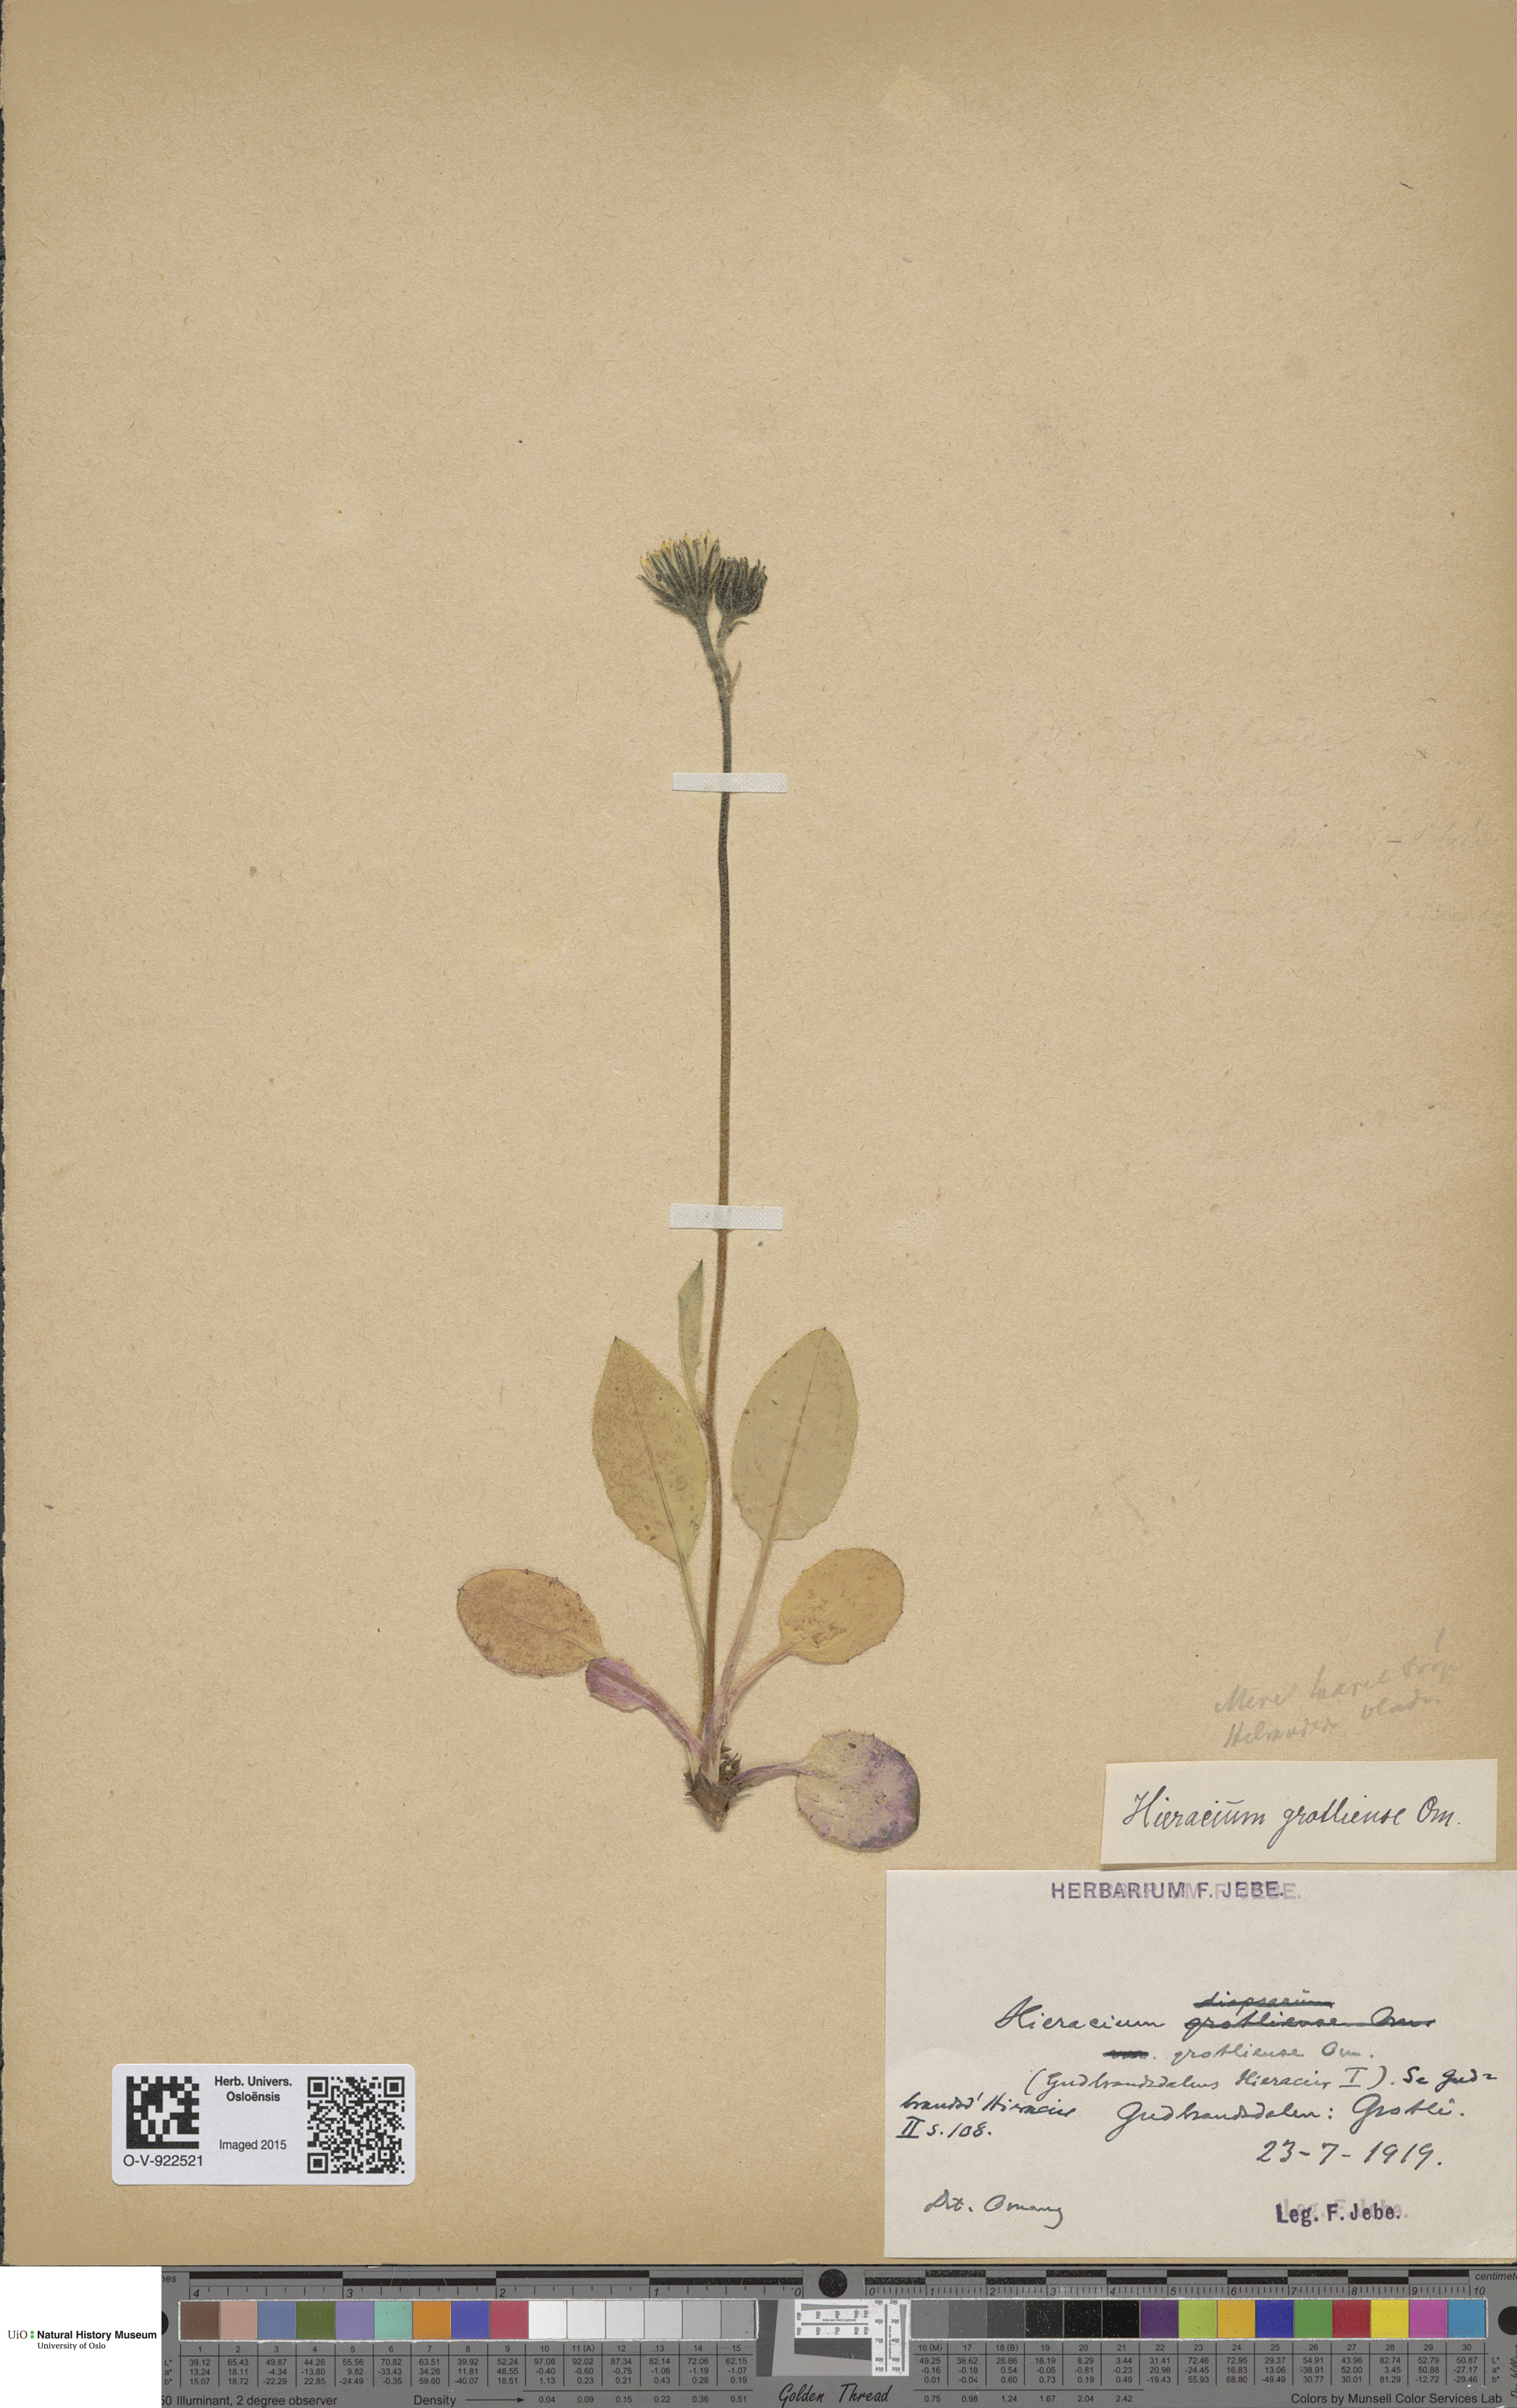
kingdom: Plantae
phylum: Tracheophyta
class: Magnoliopsida
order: Asterales
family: Asteraceae
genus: Hieracium
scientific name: Hieracium
